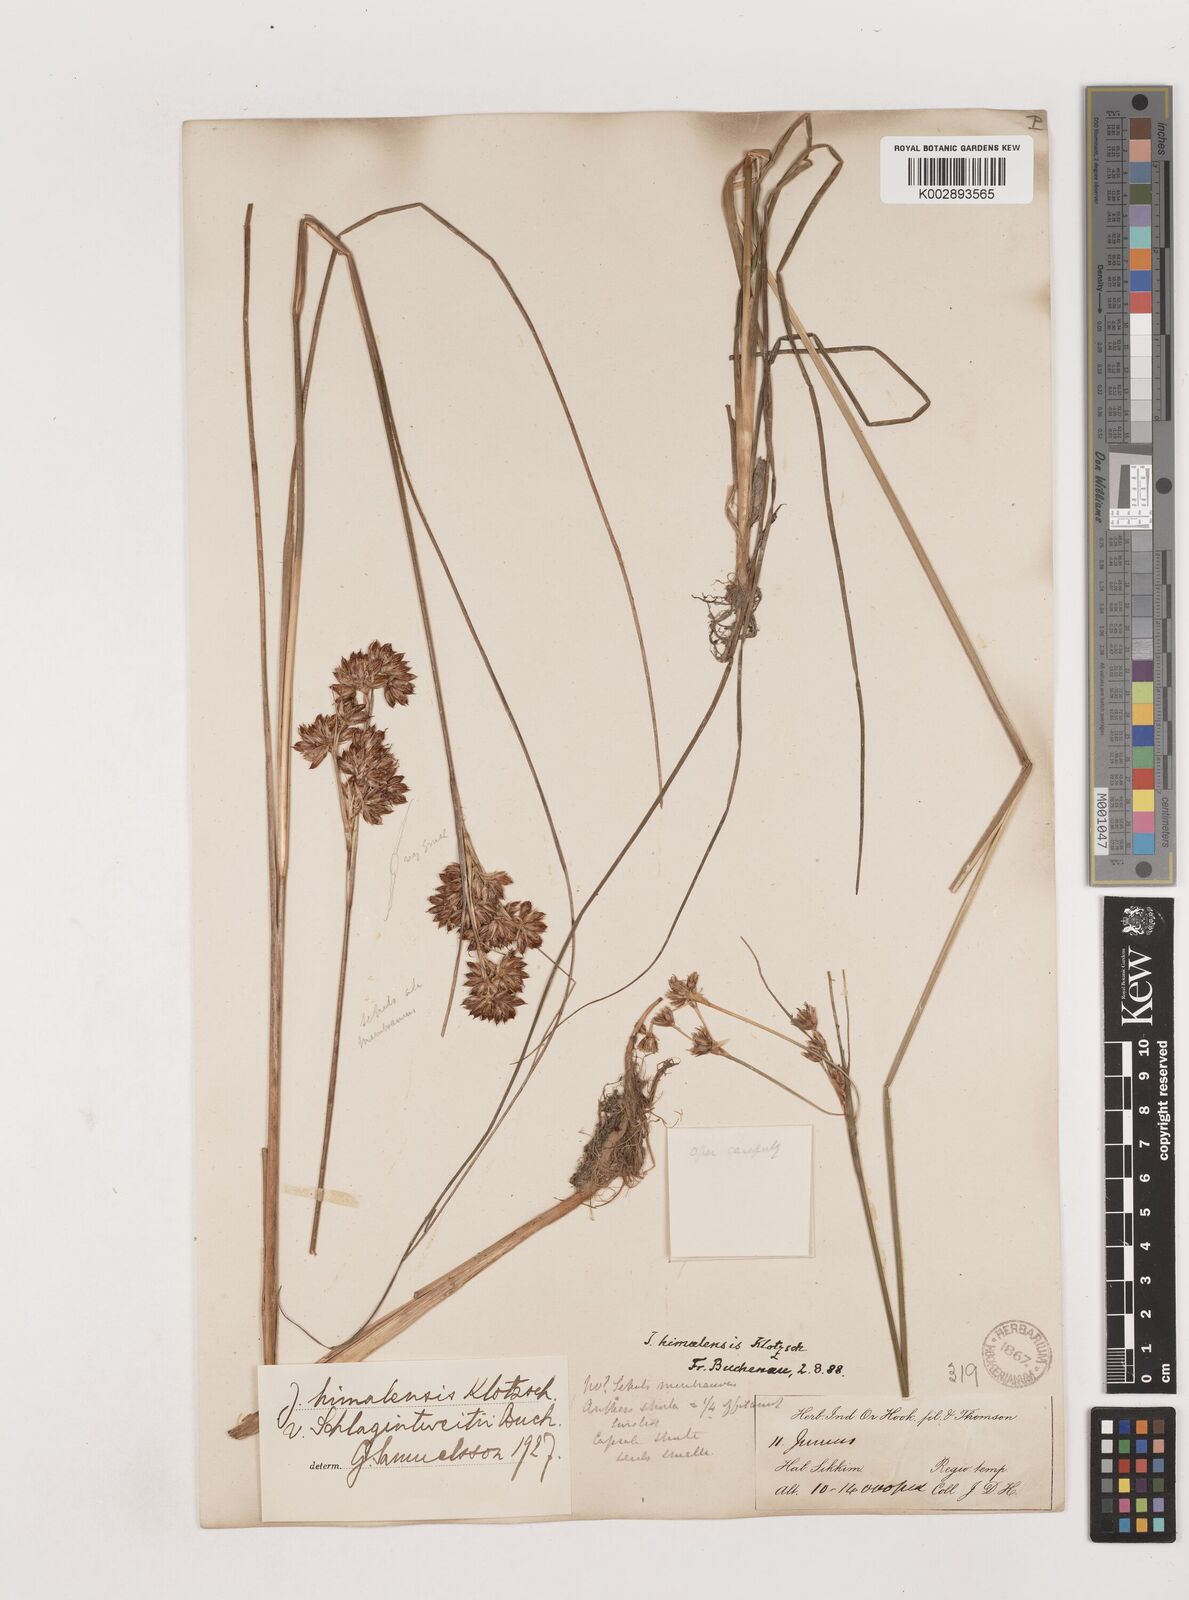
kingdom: Plantae
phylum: Tracheophyta
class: Liliopsida
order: Poales
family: Juncaceae
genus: Juncus
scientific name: Juncus himalensis
